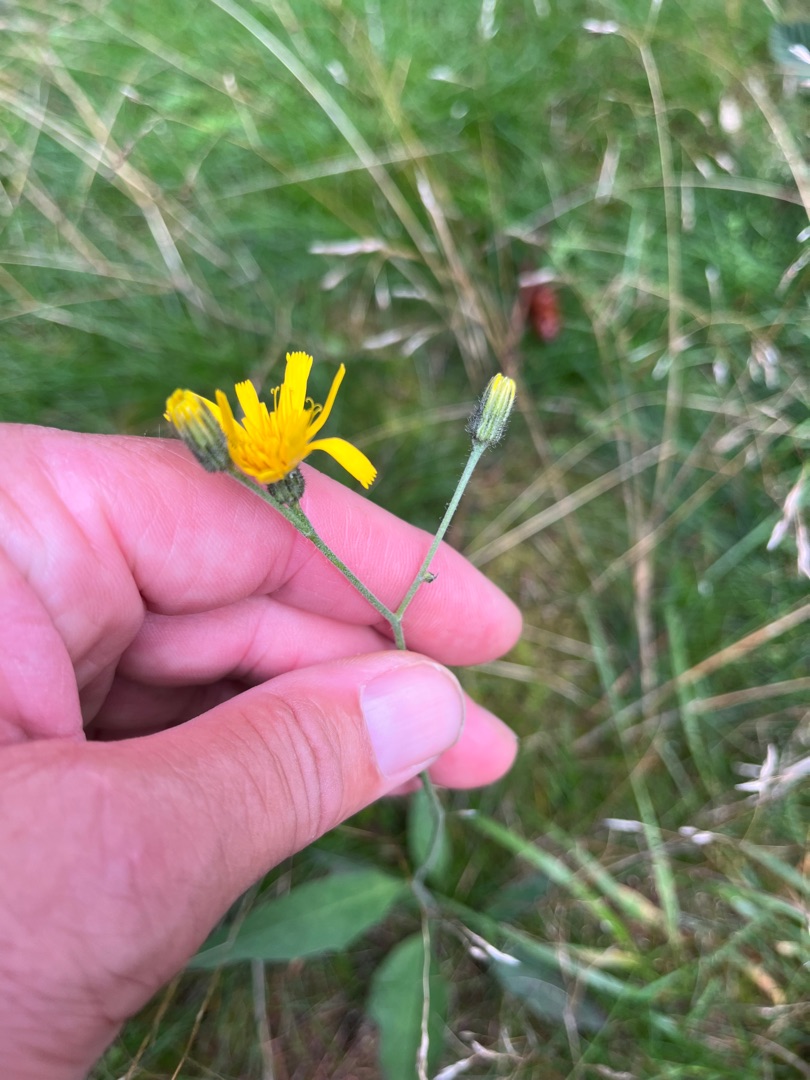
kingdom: Plantae
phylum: Tracheophyta
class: Magnoliopsida
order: Asterales
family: Asteraceae
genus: Hieracium
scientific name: Hieracium vulgatum
